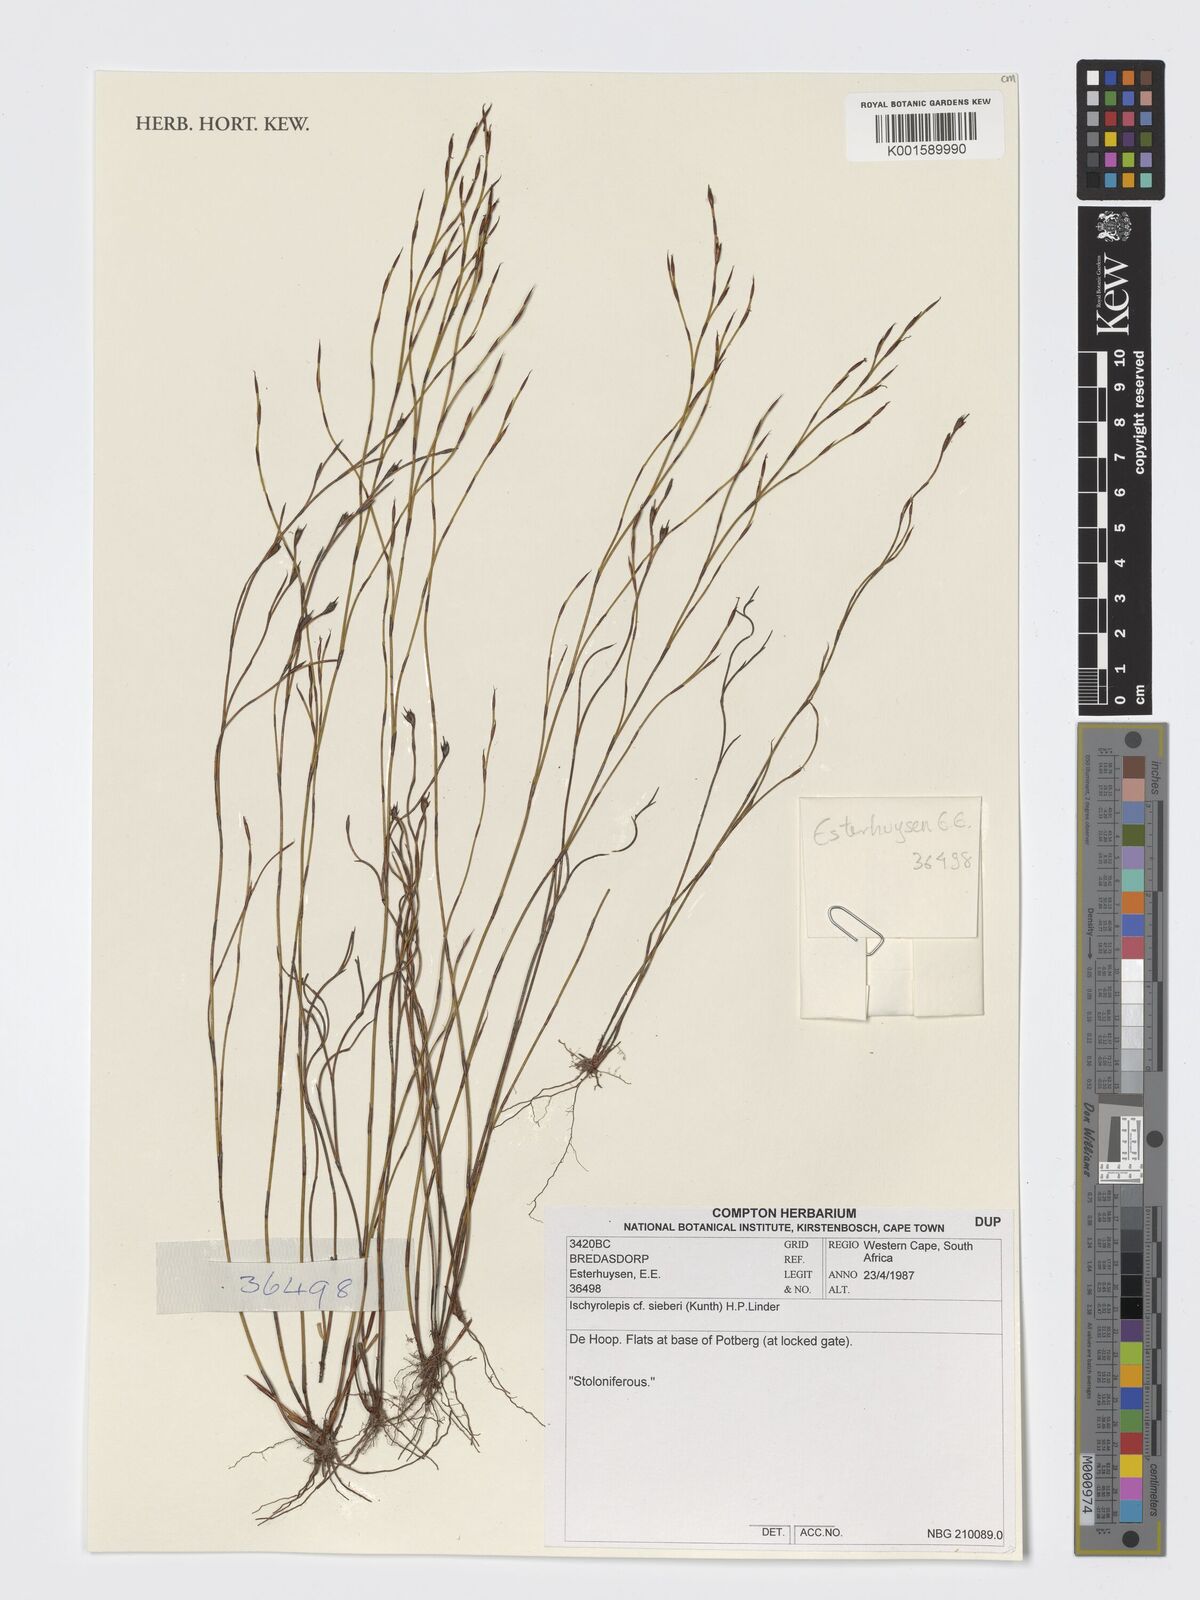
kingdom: Plantae
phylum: Tracheophyta
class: Liliopsida
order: Poales
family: Restionaceae
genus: Restio
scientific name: Restio sieberi
